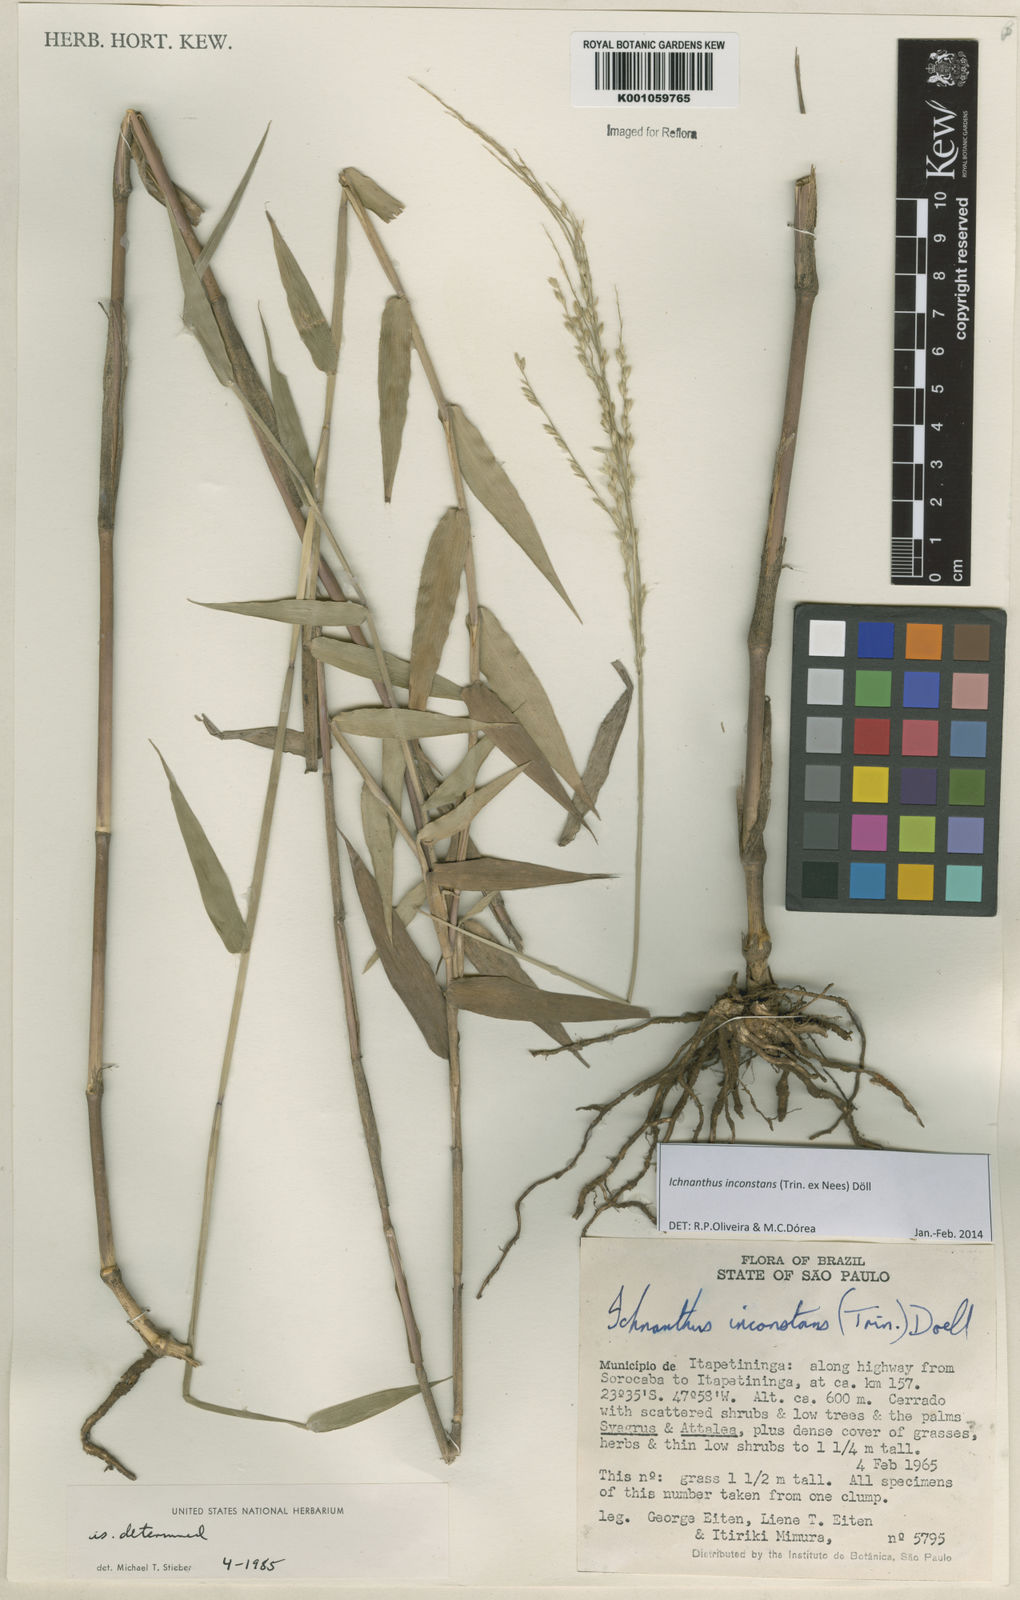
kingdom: Plantae
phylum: Tracheophyta
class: Liliopsida
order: Poales
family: Poaceae
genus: Ichnanthus
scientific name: Ichnanthus
